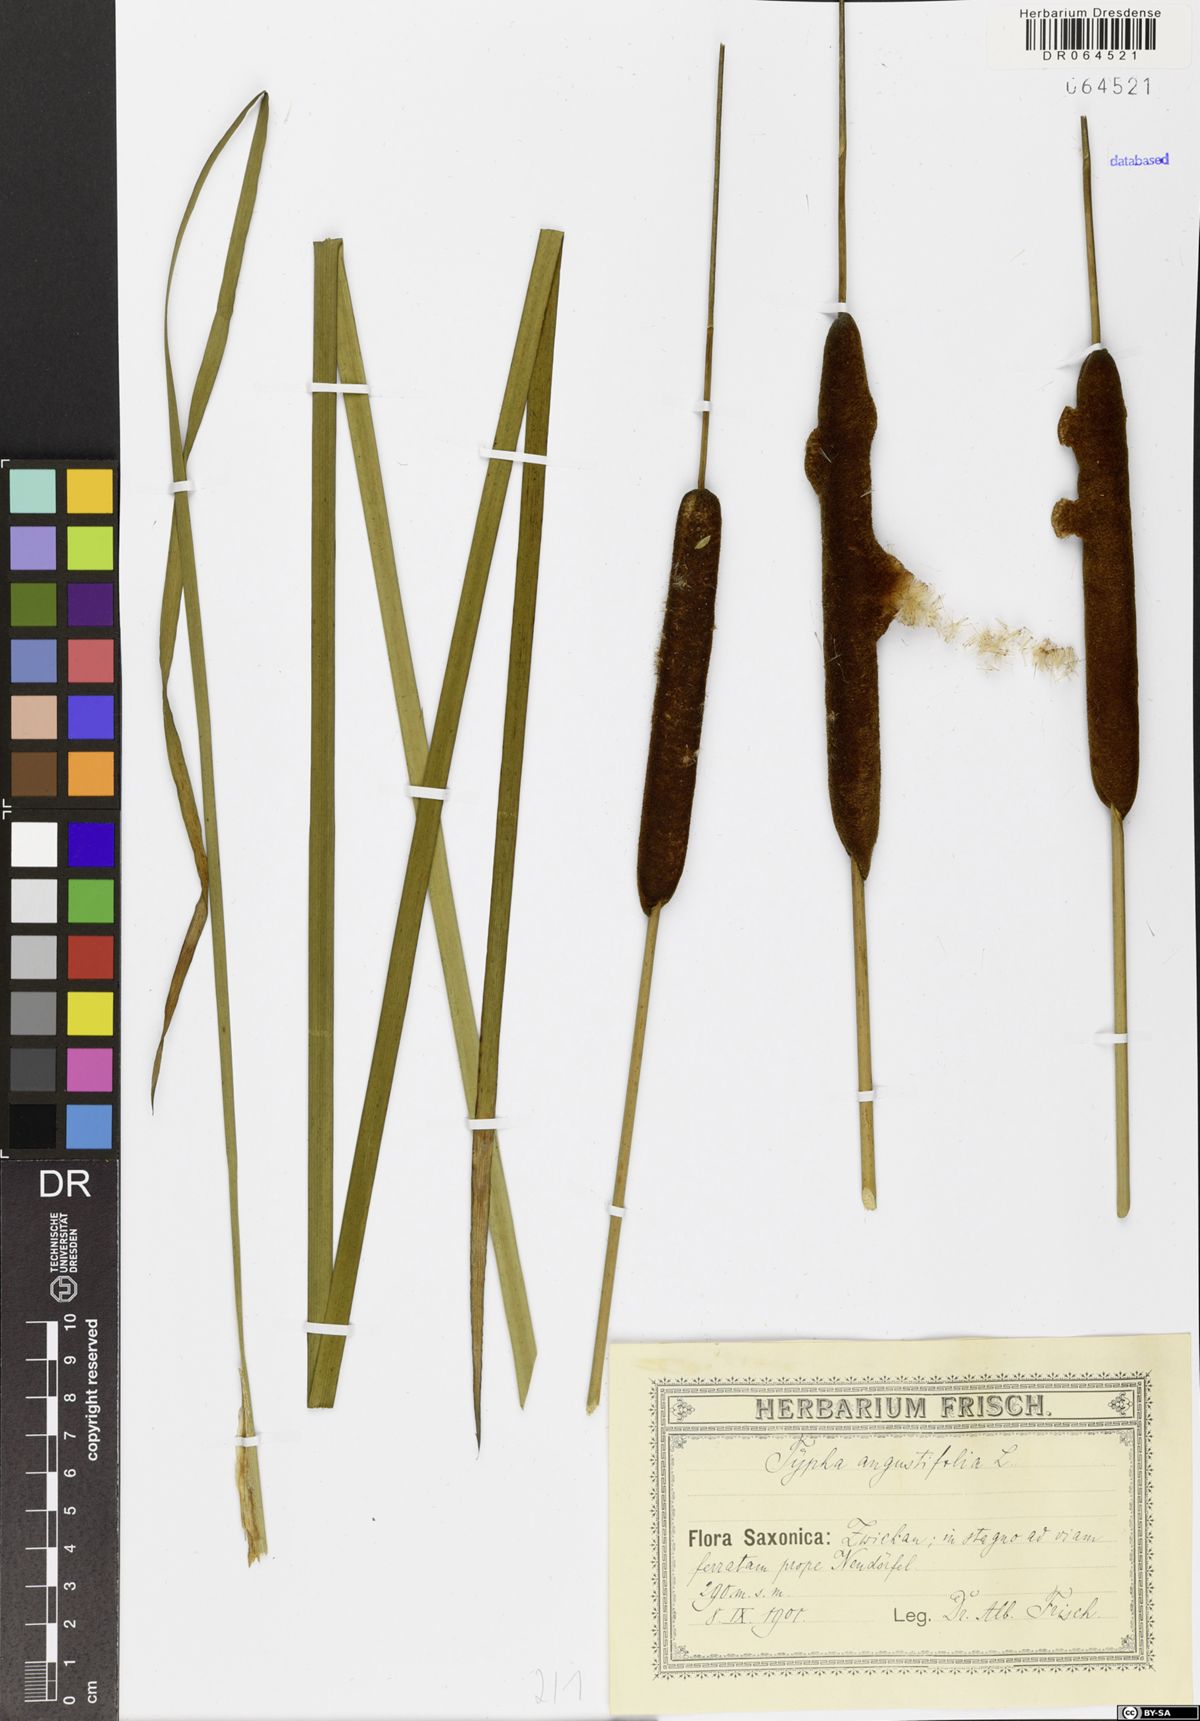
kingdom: Plantae
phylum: Tracheophyta
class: Liliopsida
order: Poales
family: Typhaceae
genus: Typha
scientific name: Typha angustifolia
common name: Lesser bulrush
